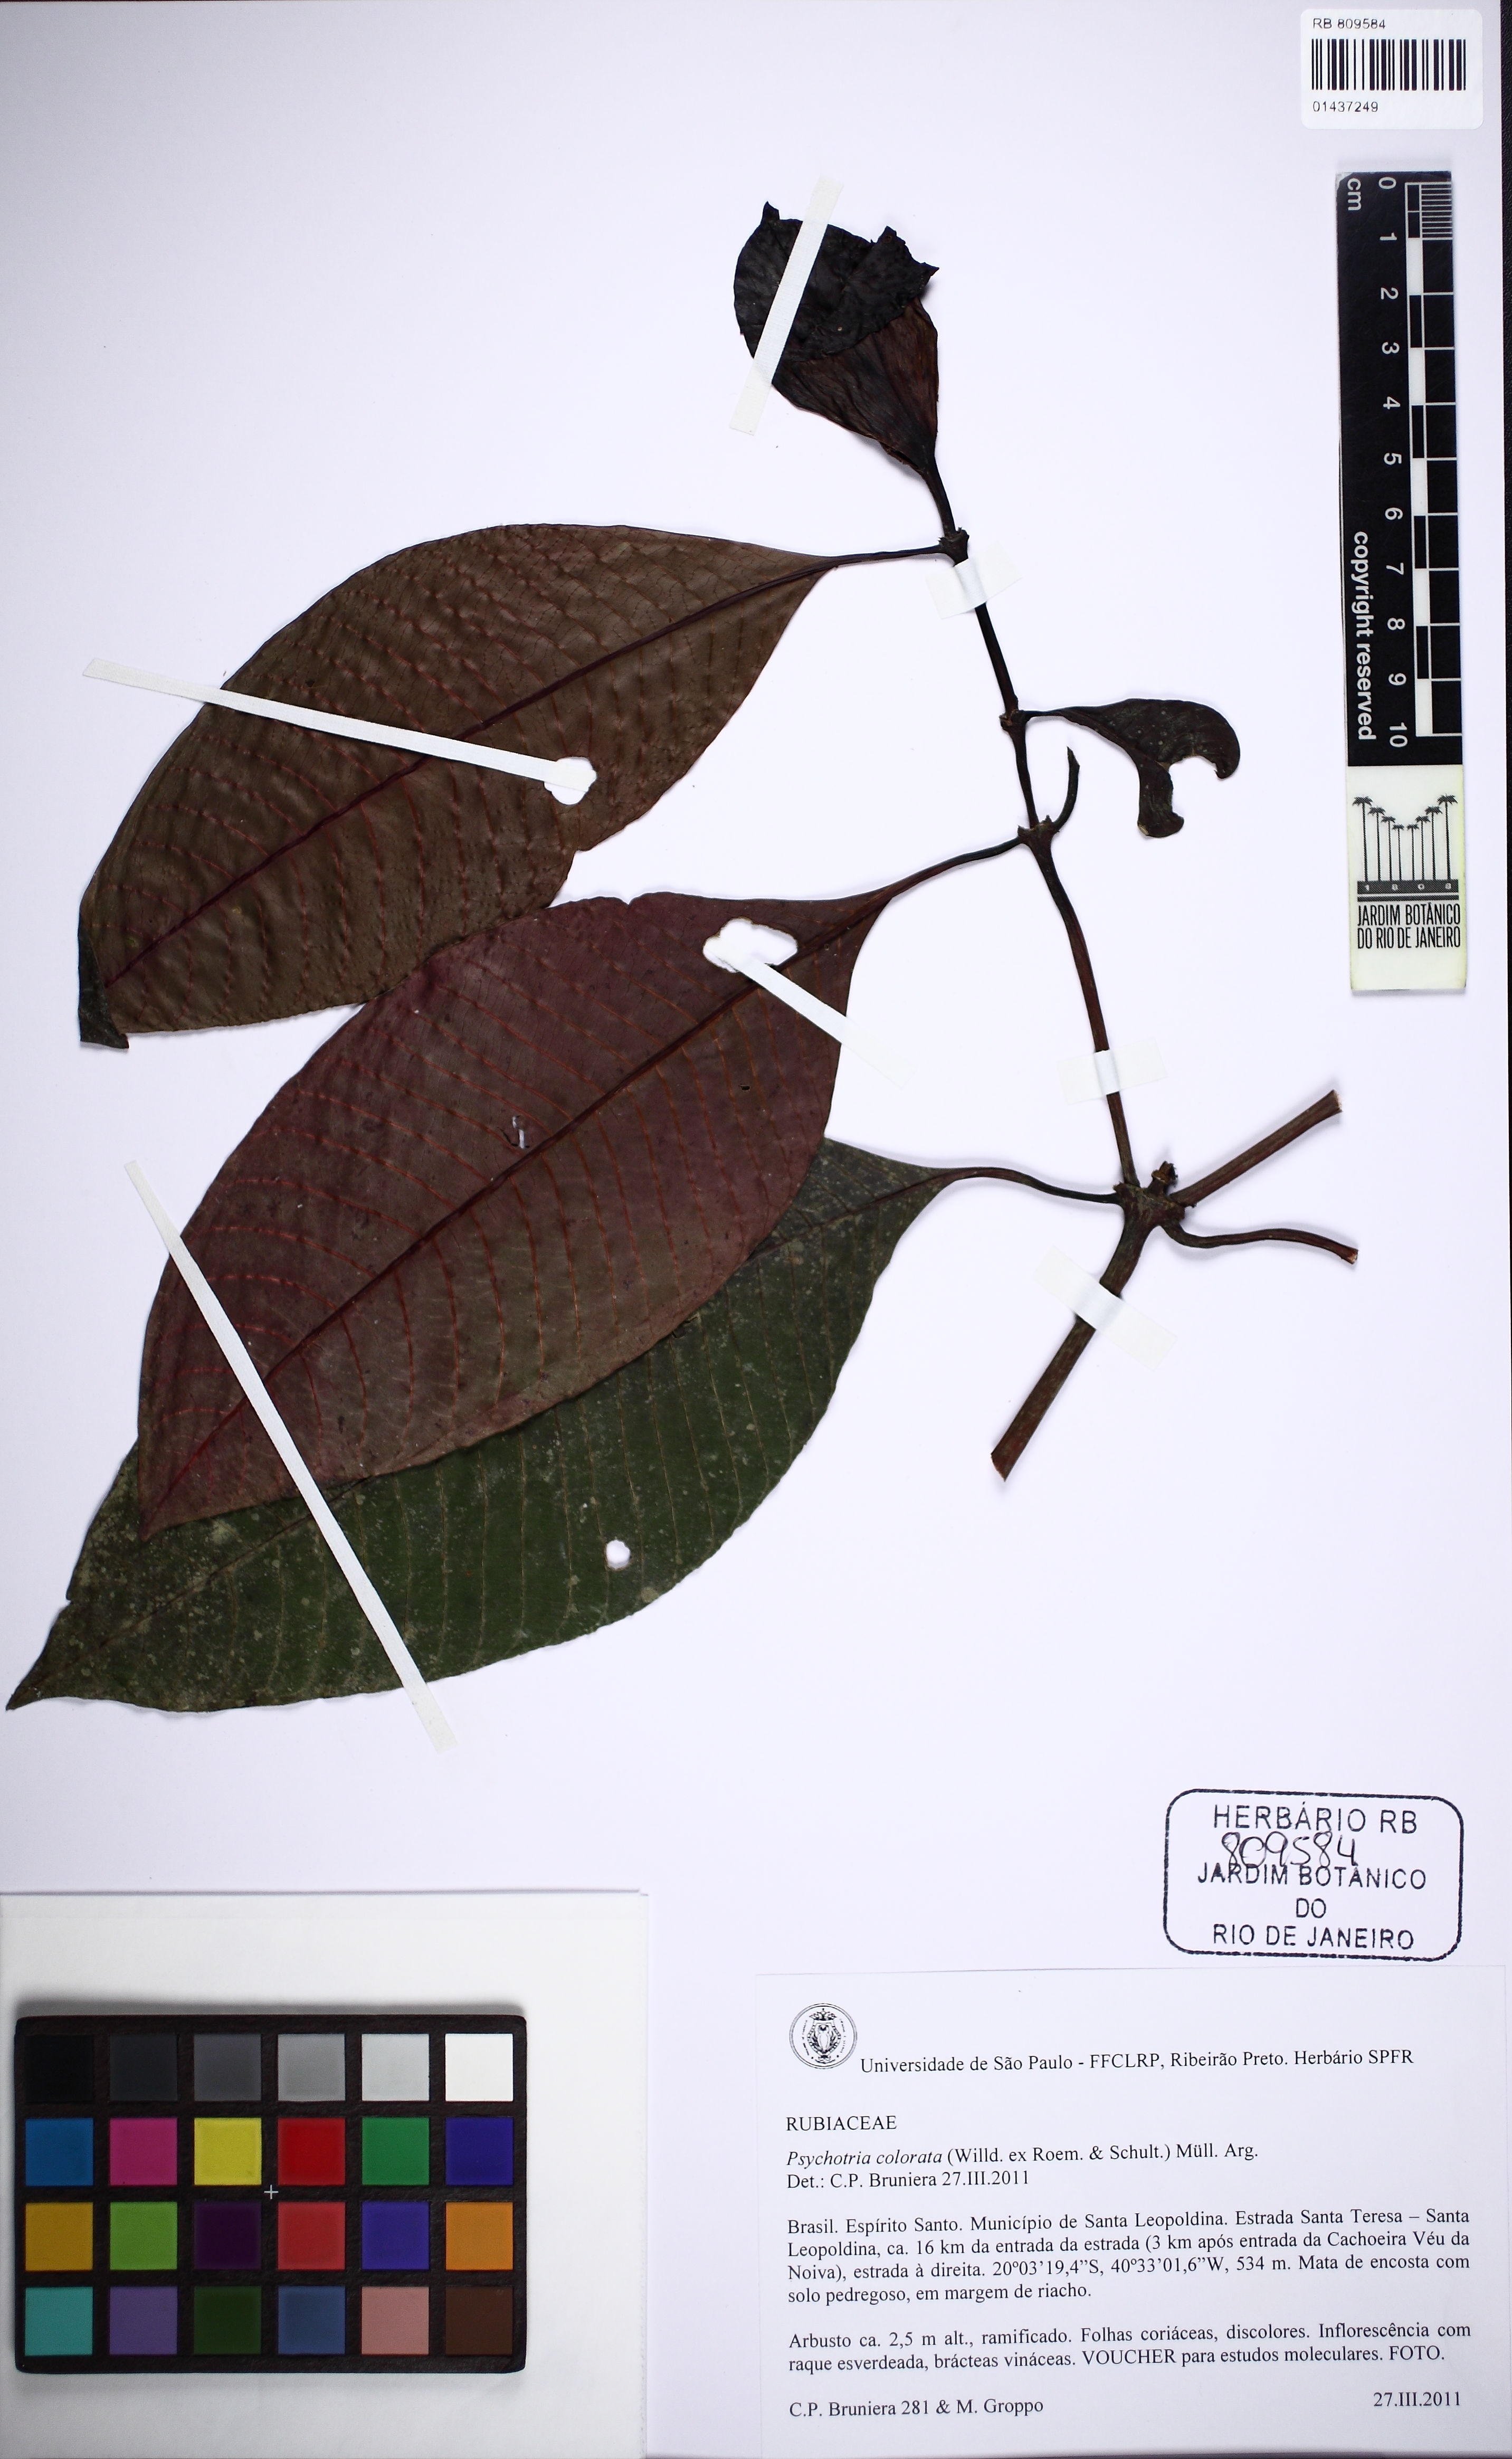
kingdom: Plantae
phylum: Tracheophyta
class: Magnoliopsida
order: Gentianales
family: Rubiaceae
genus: Psychotria
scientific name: Psychotria alto-macahensis
